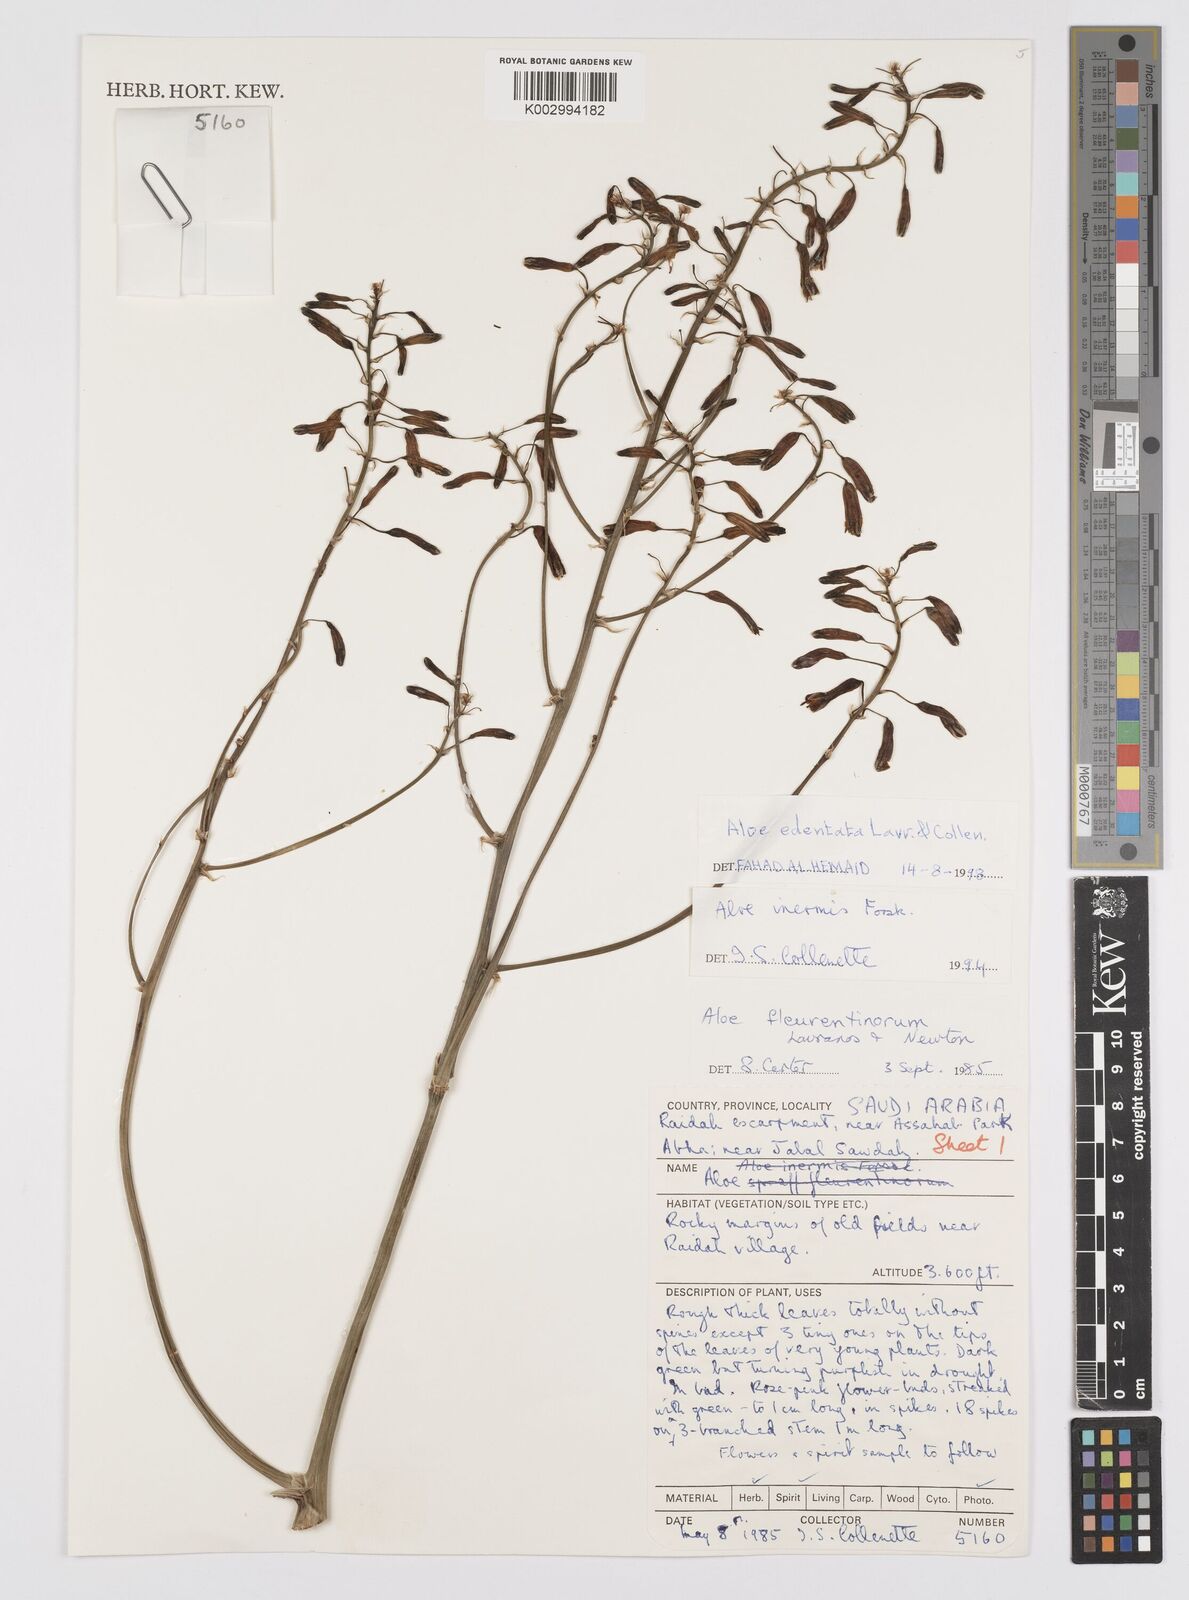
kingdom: Plantae
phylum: Tracheophyta
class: Liliopsida
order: Asparagales
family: Asphodelaceae
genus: Aloe
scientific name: Aloe fleurentiniorum
